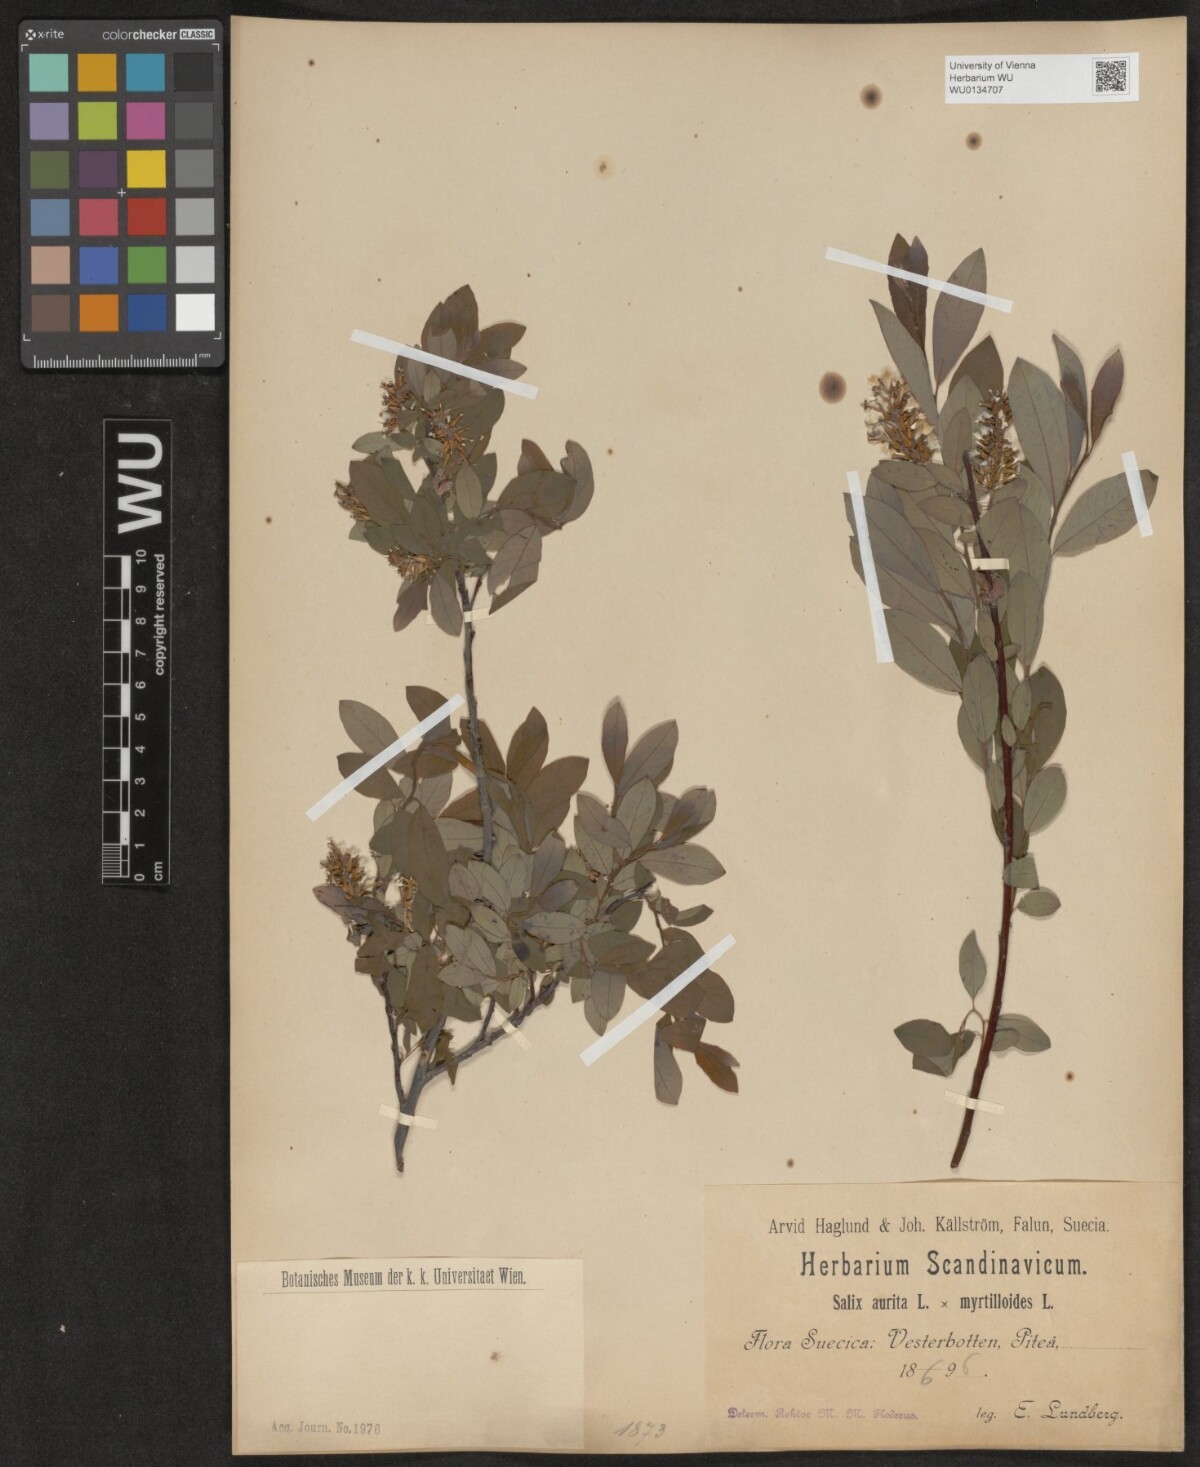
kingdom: Plantae
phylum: Tracheophyta
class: Magnoliopsida
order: Malpighiales
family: Salicaceae
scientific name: Salicaceae
